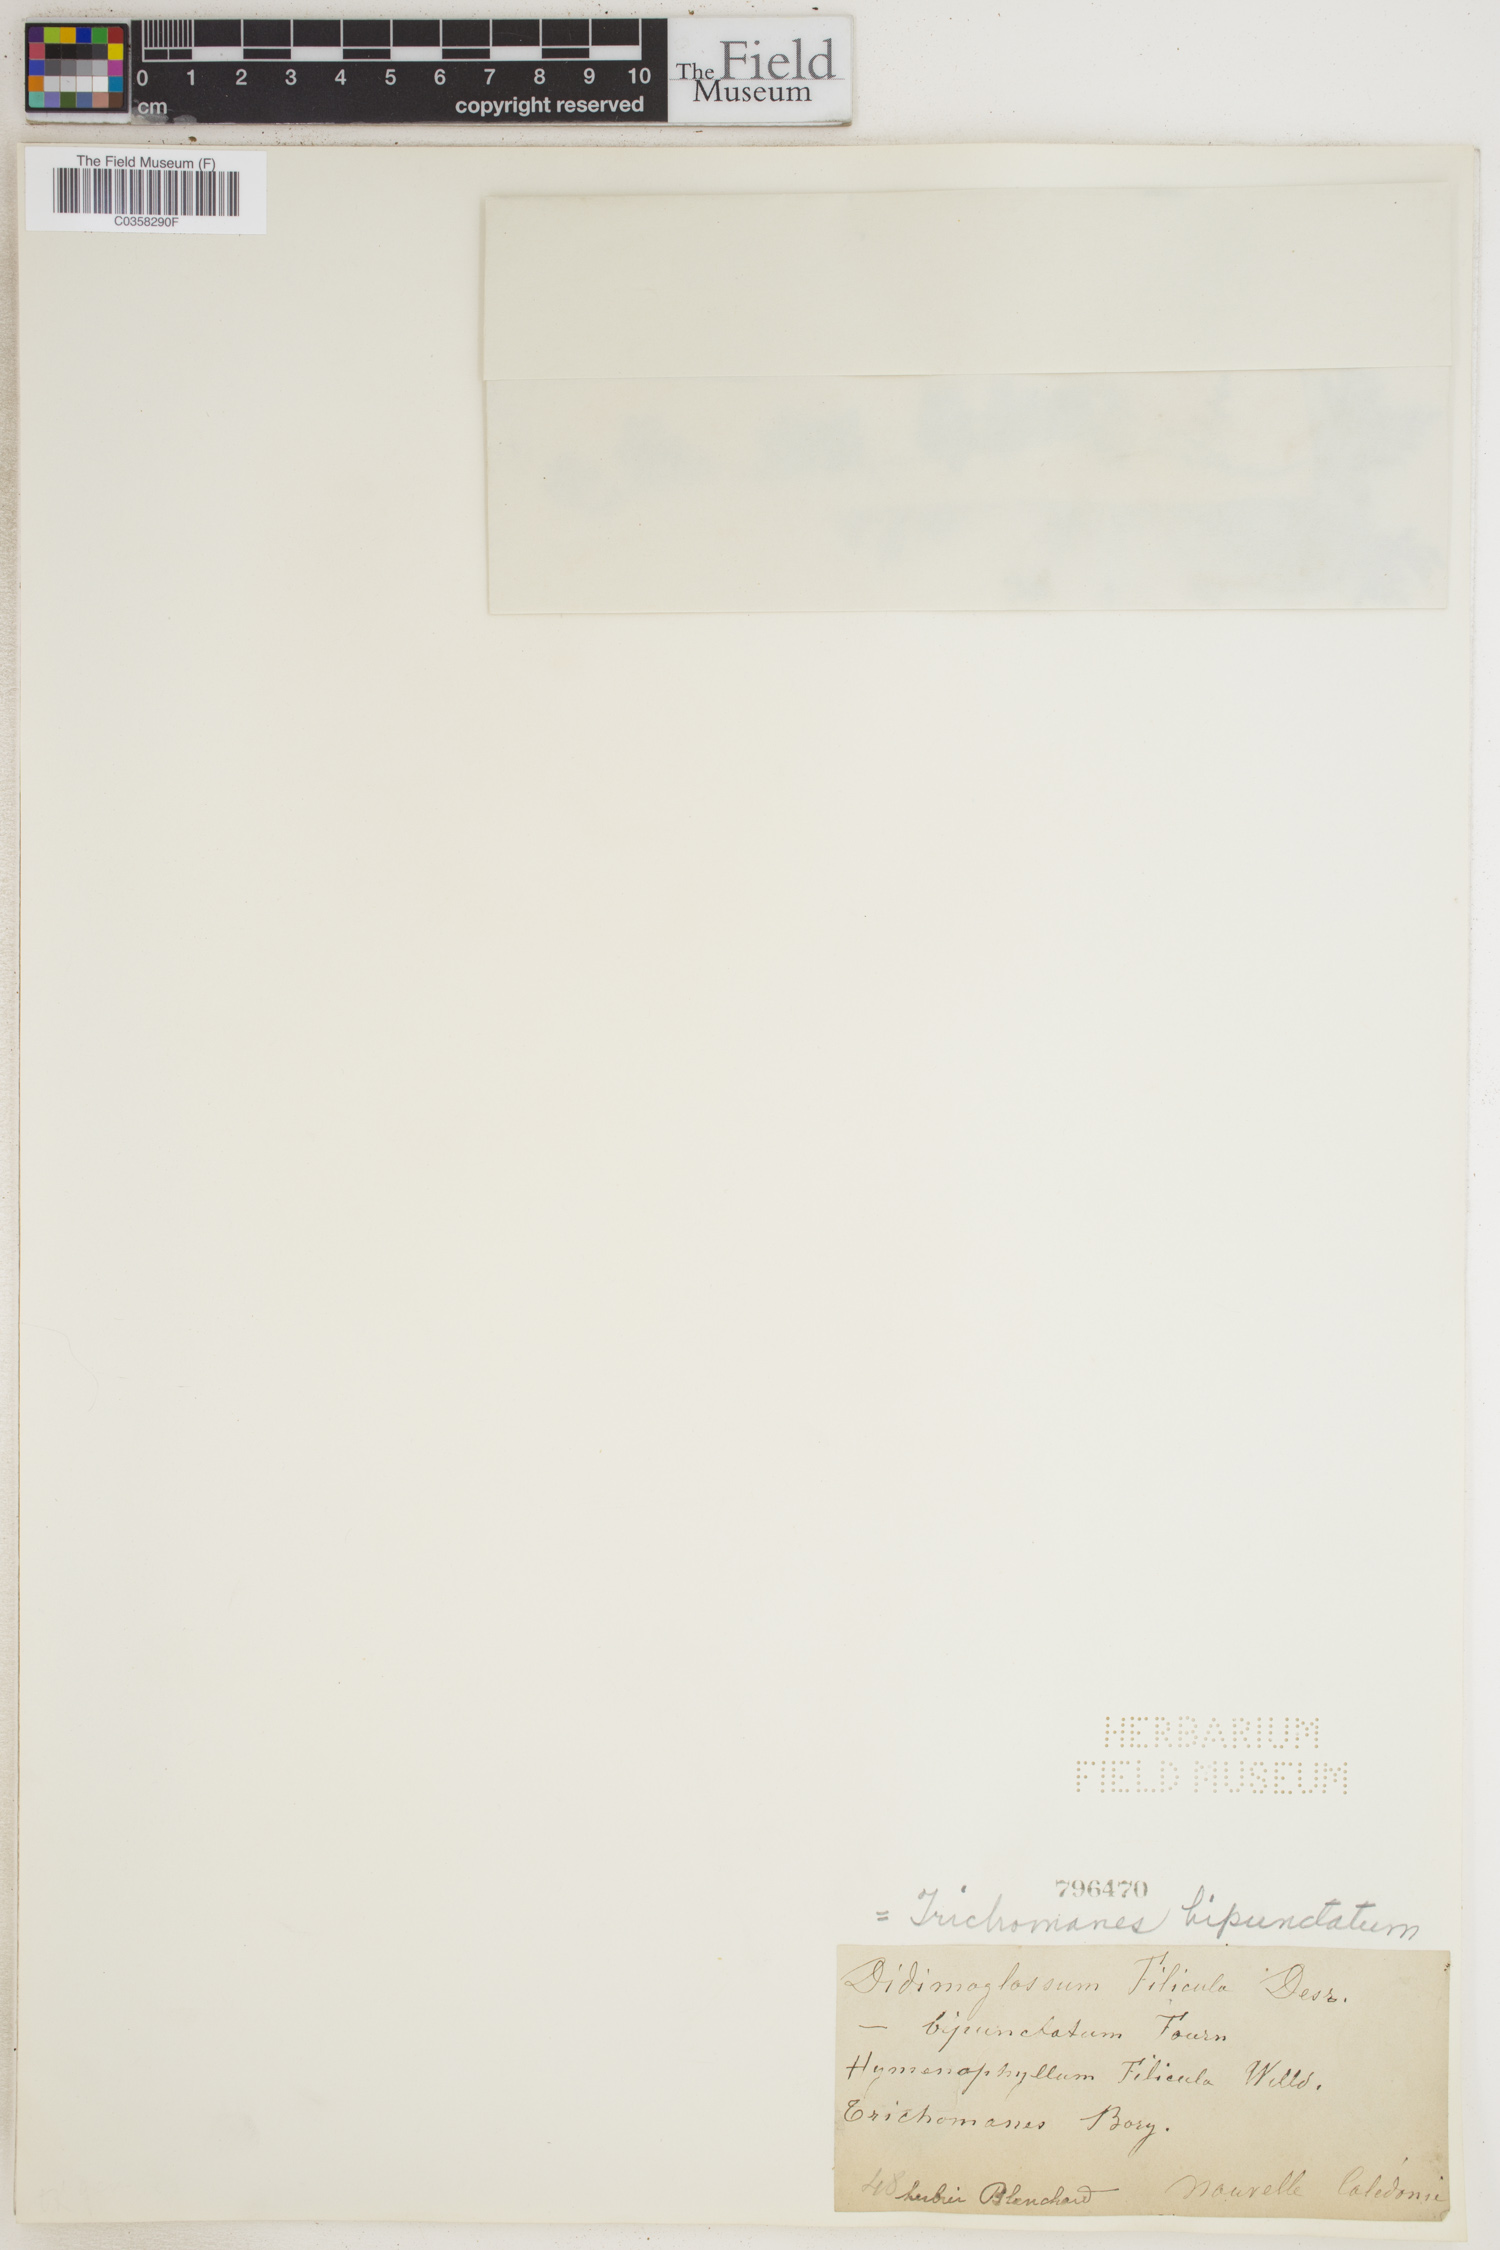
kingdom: Plantae
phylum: Tracheophyta
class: Polypodiopsida
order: Hymenophyllales
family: Hymenophyllaceae
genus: Crepidomanes
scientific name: Crepidomanes bipunctatum
